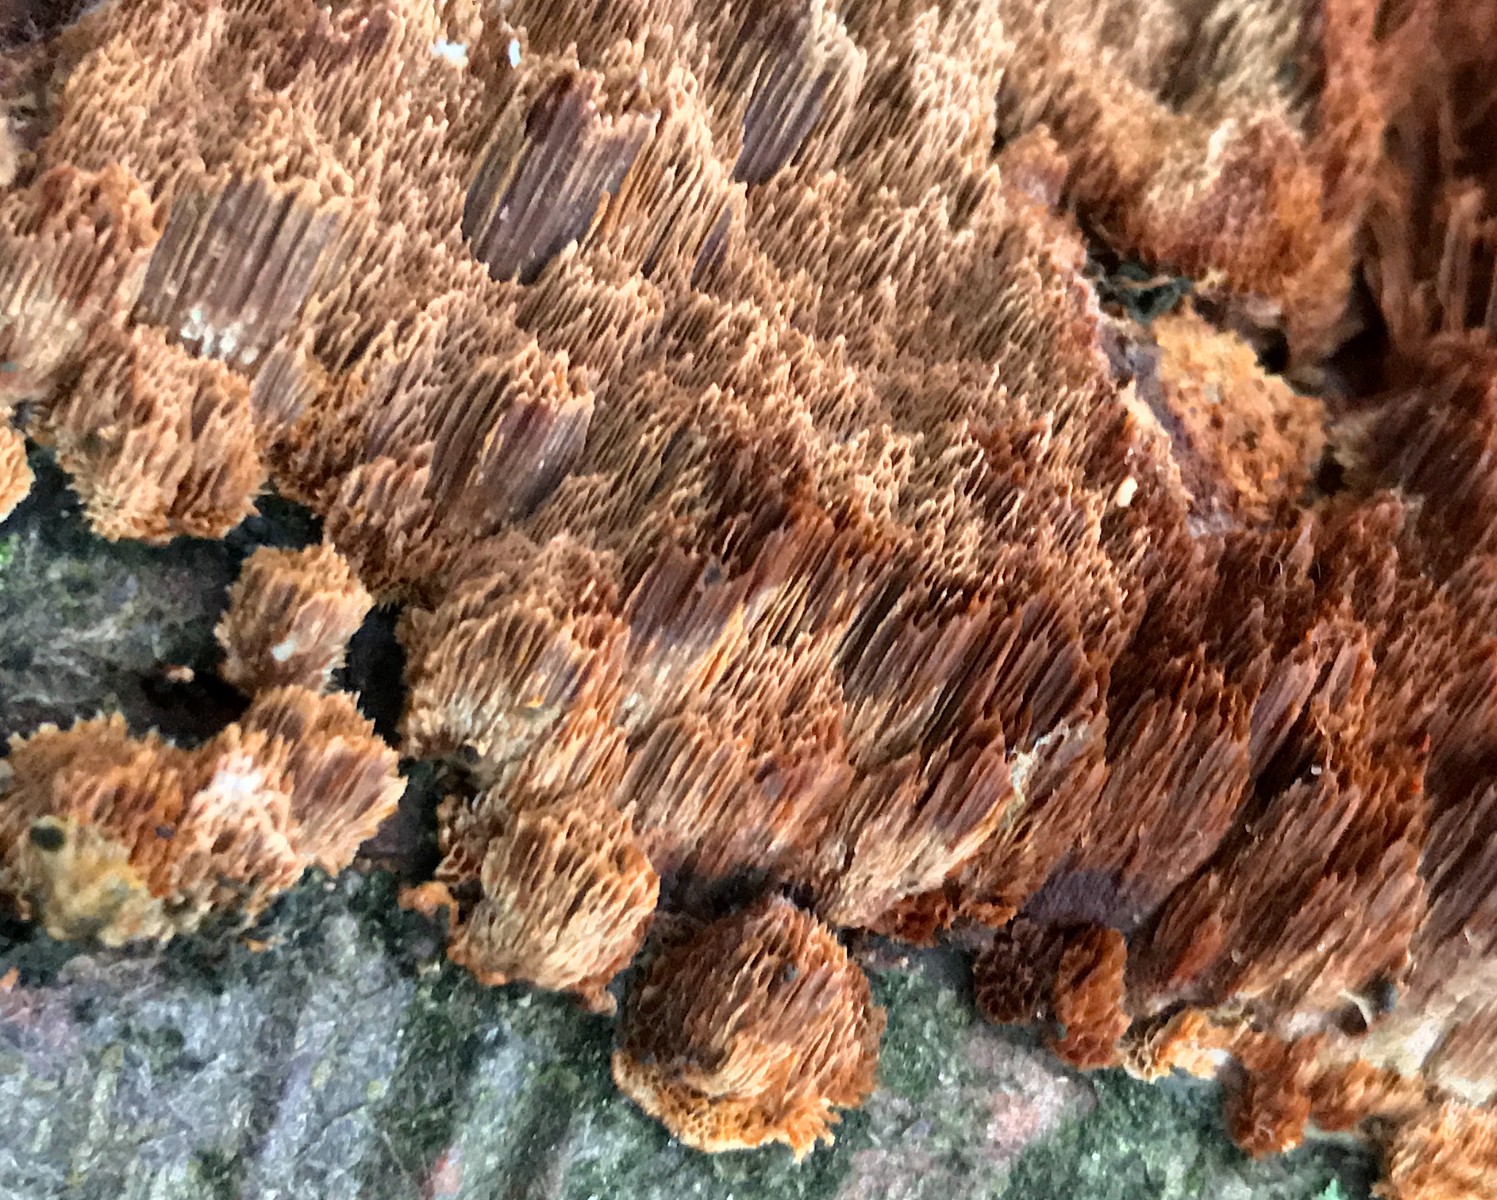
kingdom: Fungi
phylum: Basidiomycota
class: Agaricomycetes
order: Hymenochaetales
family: Hymenochaetaceae
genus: Mensularia
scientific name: Mensularia nodulosa
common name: bøge-spejlporesvamp
